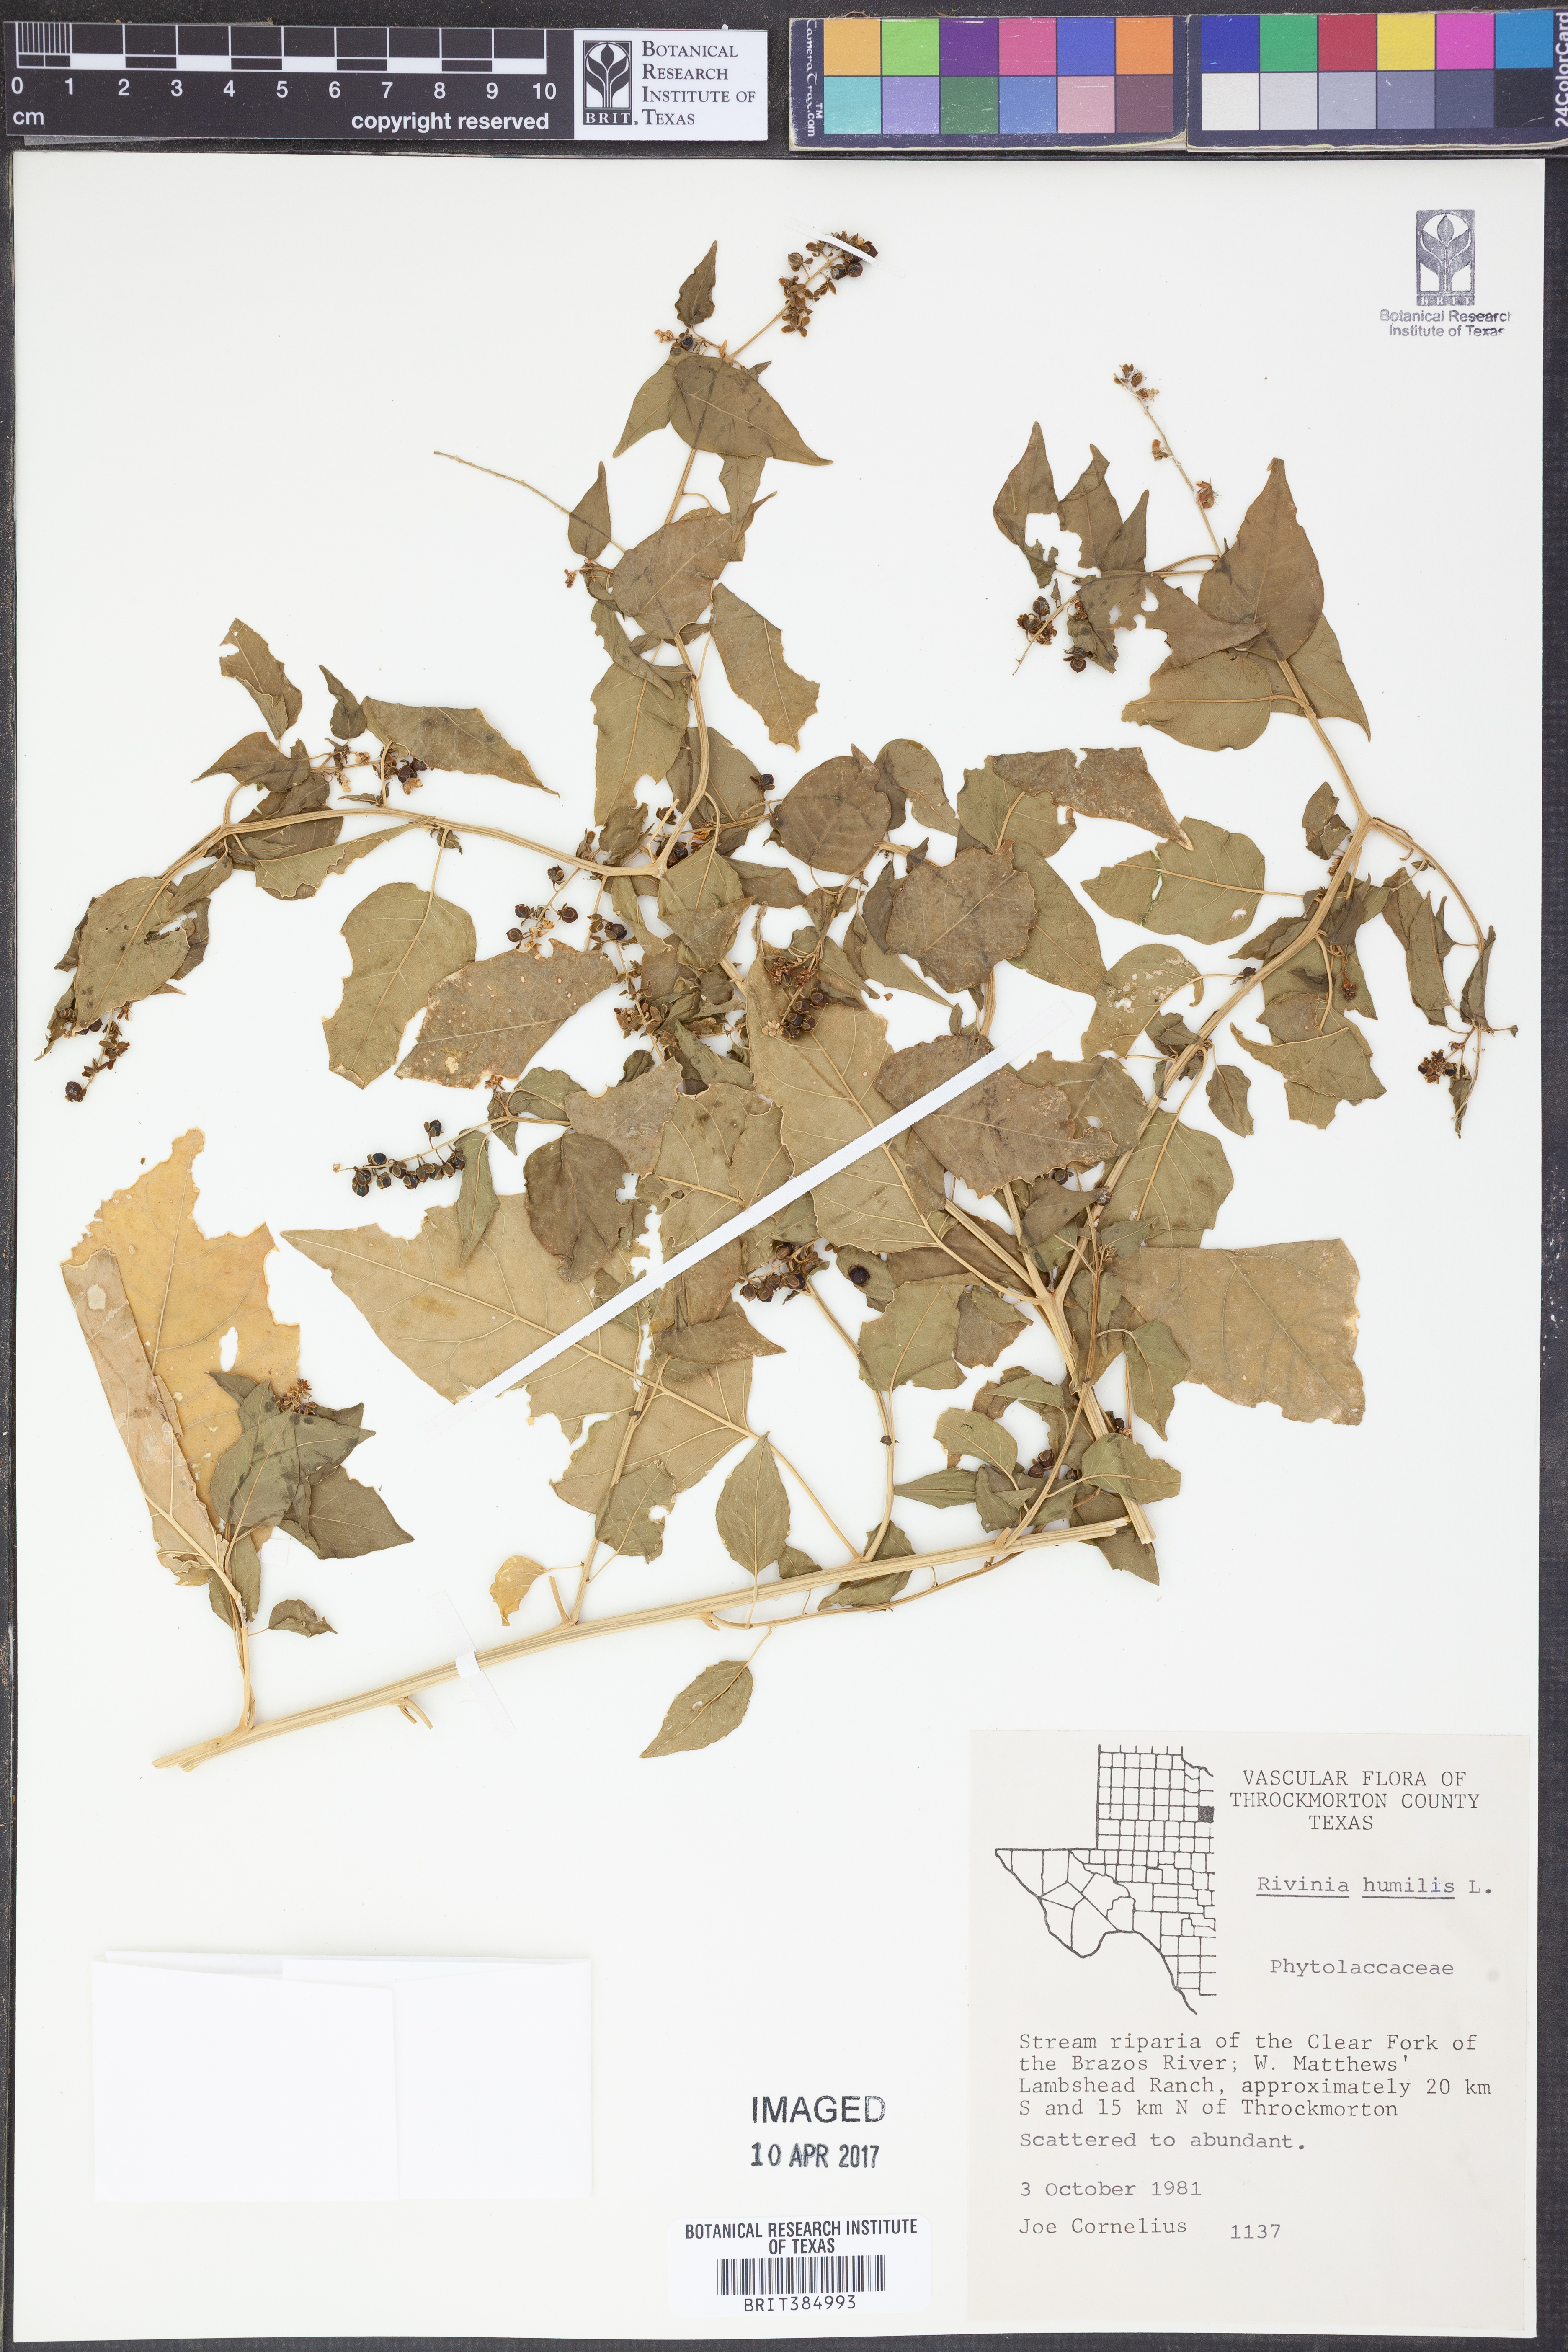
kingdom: Plantae
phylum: Tracheophyta
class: Magnoliopsida
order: Caryophyllales
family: Phytolaccaceae
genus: Rivina
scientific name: Rivina humilis
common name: Rougeplant
